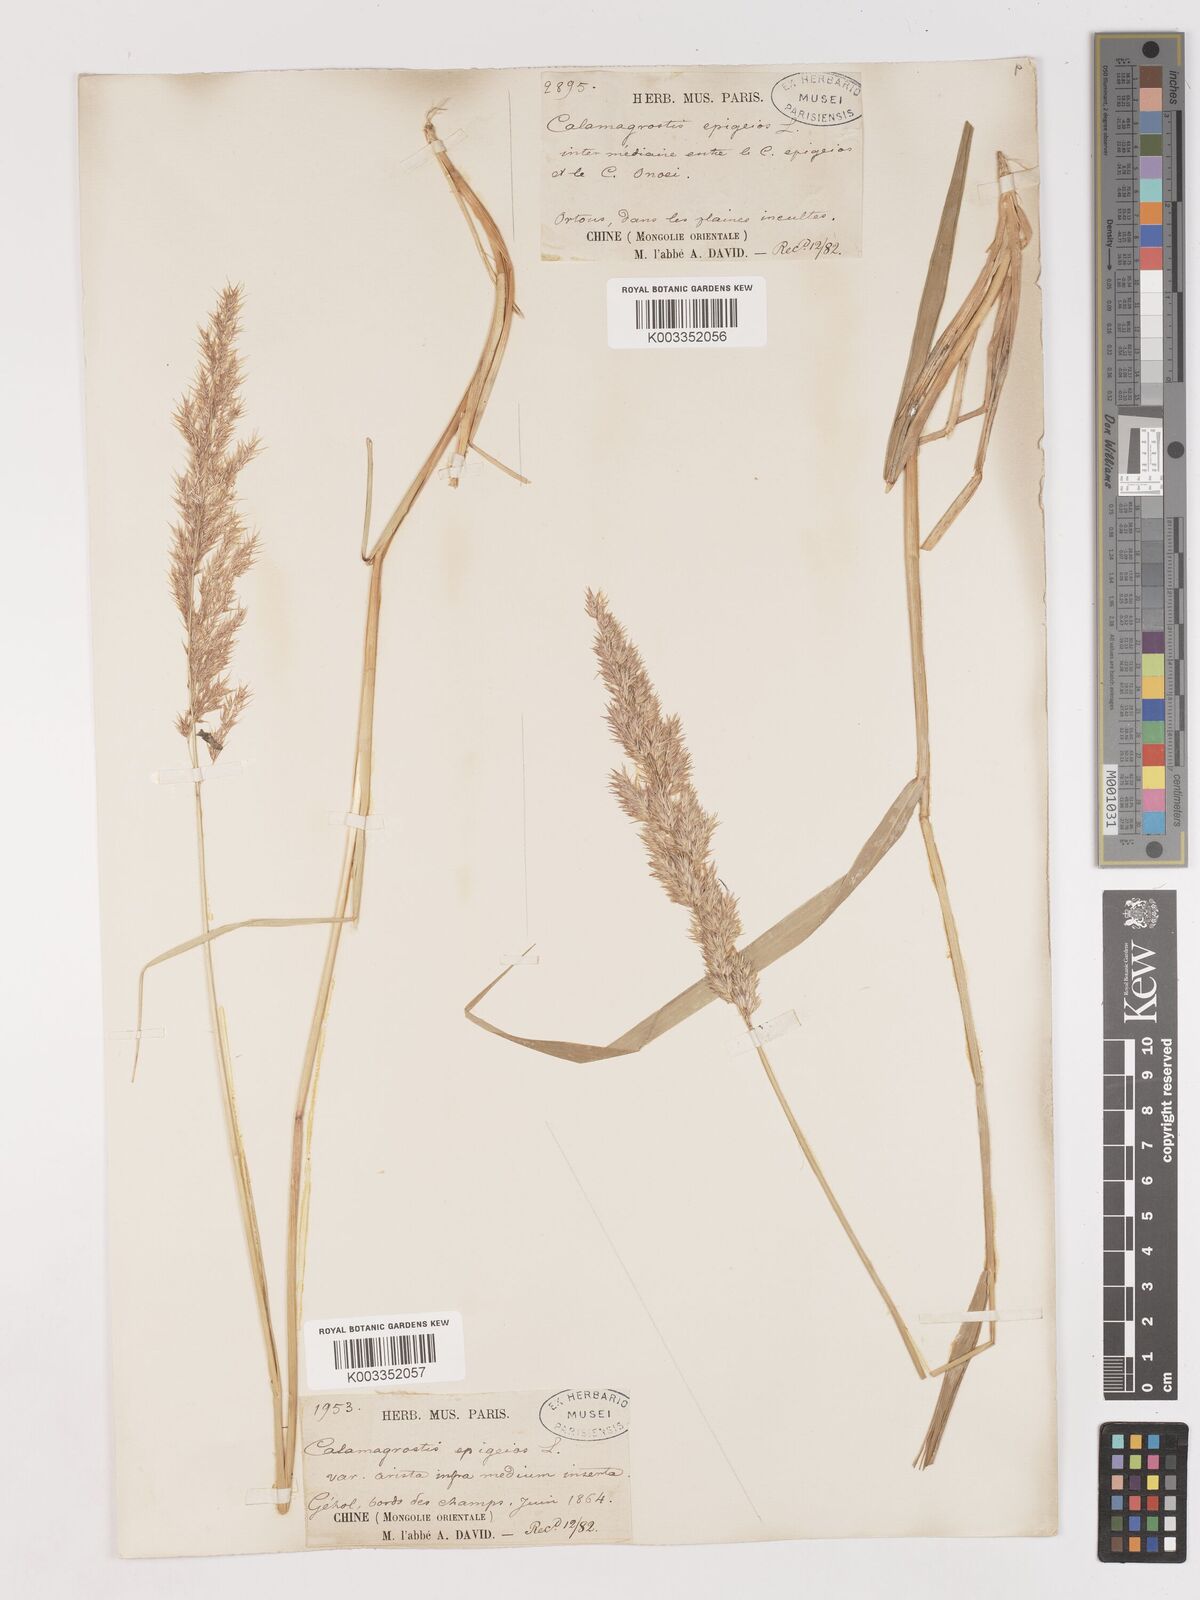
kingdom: Plantae
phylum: Tracheophyta
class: Liliopsida
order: Poales
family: Poaceae
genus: Calamagrostis
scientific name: Calamagrostis epigejos
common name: Wood small-reed
